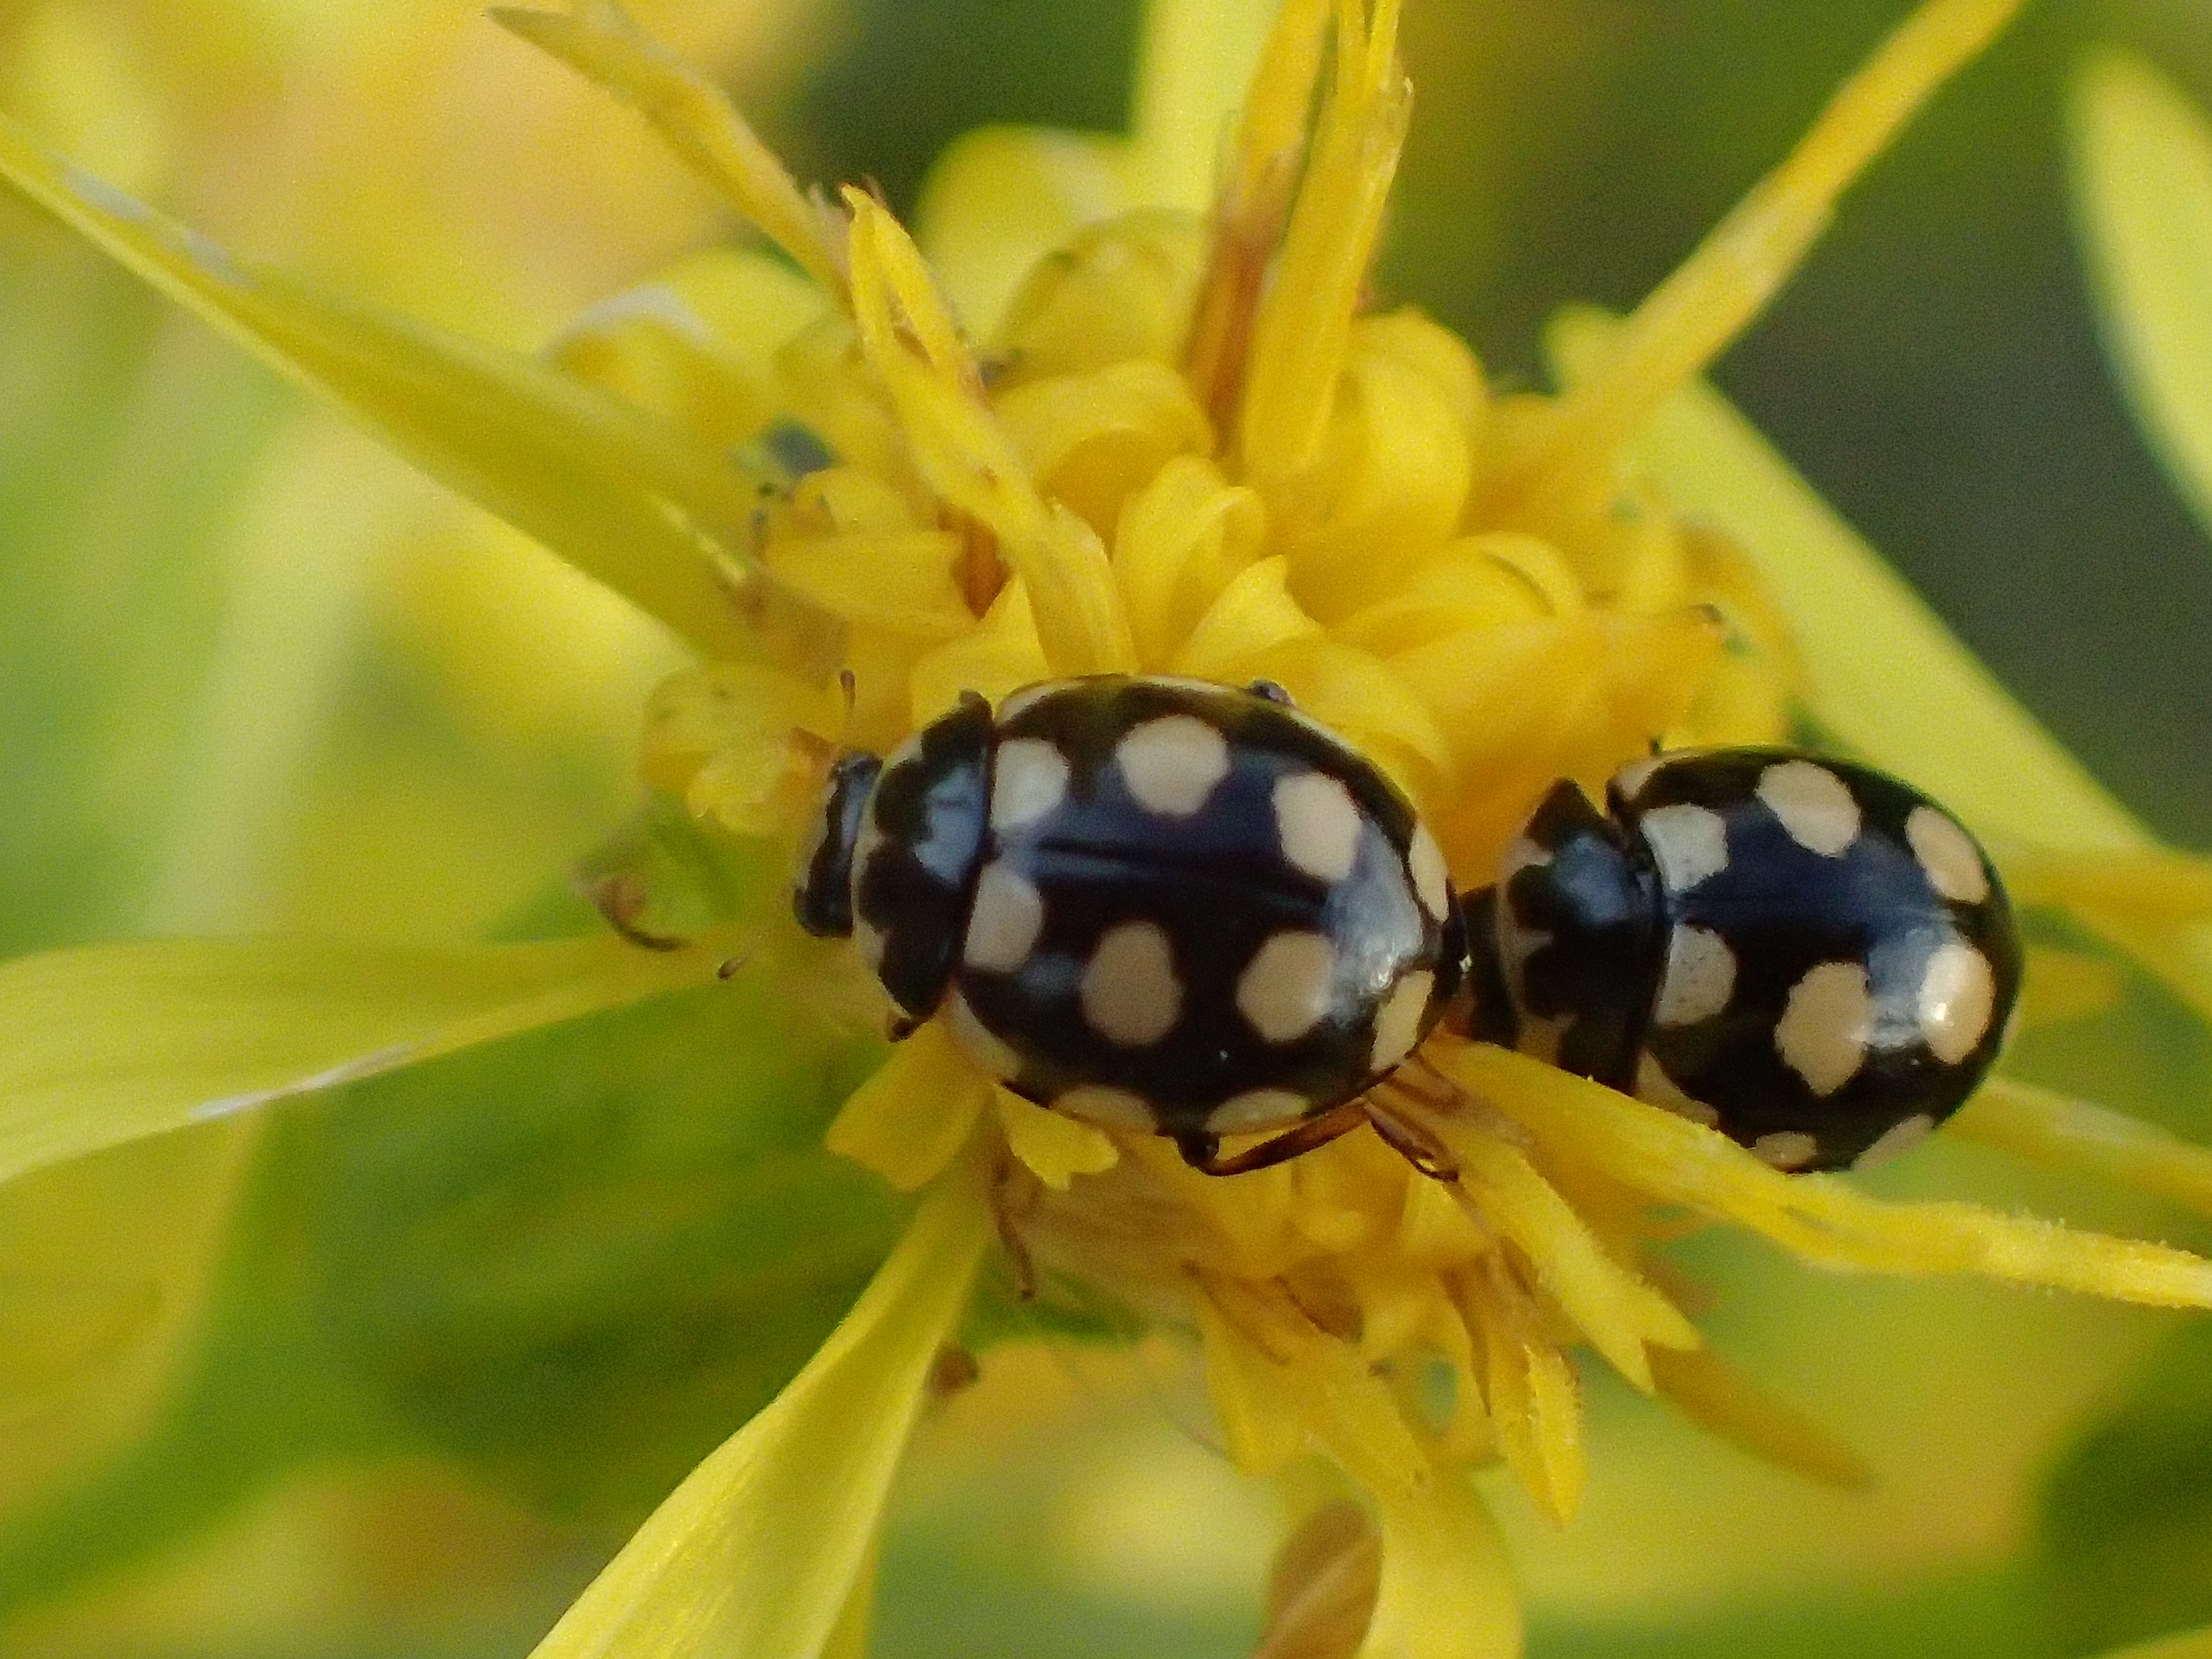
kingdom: Animalia
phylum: Arthropoda
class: Insecta
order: Coleoptera
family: Coccinellidae
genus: Coccinula
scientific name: Coccinula quatuordecimpustulata
